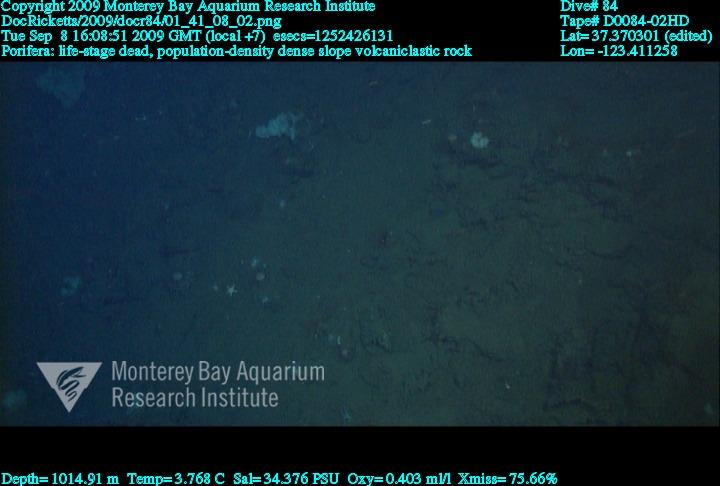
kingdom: Animalia
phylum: Porifera
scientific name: Porifera
